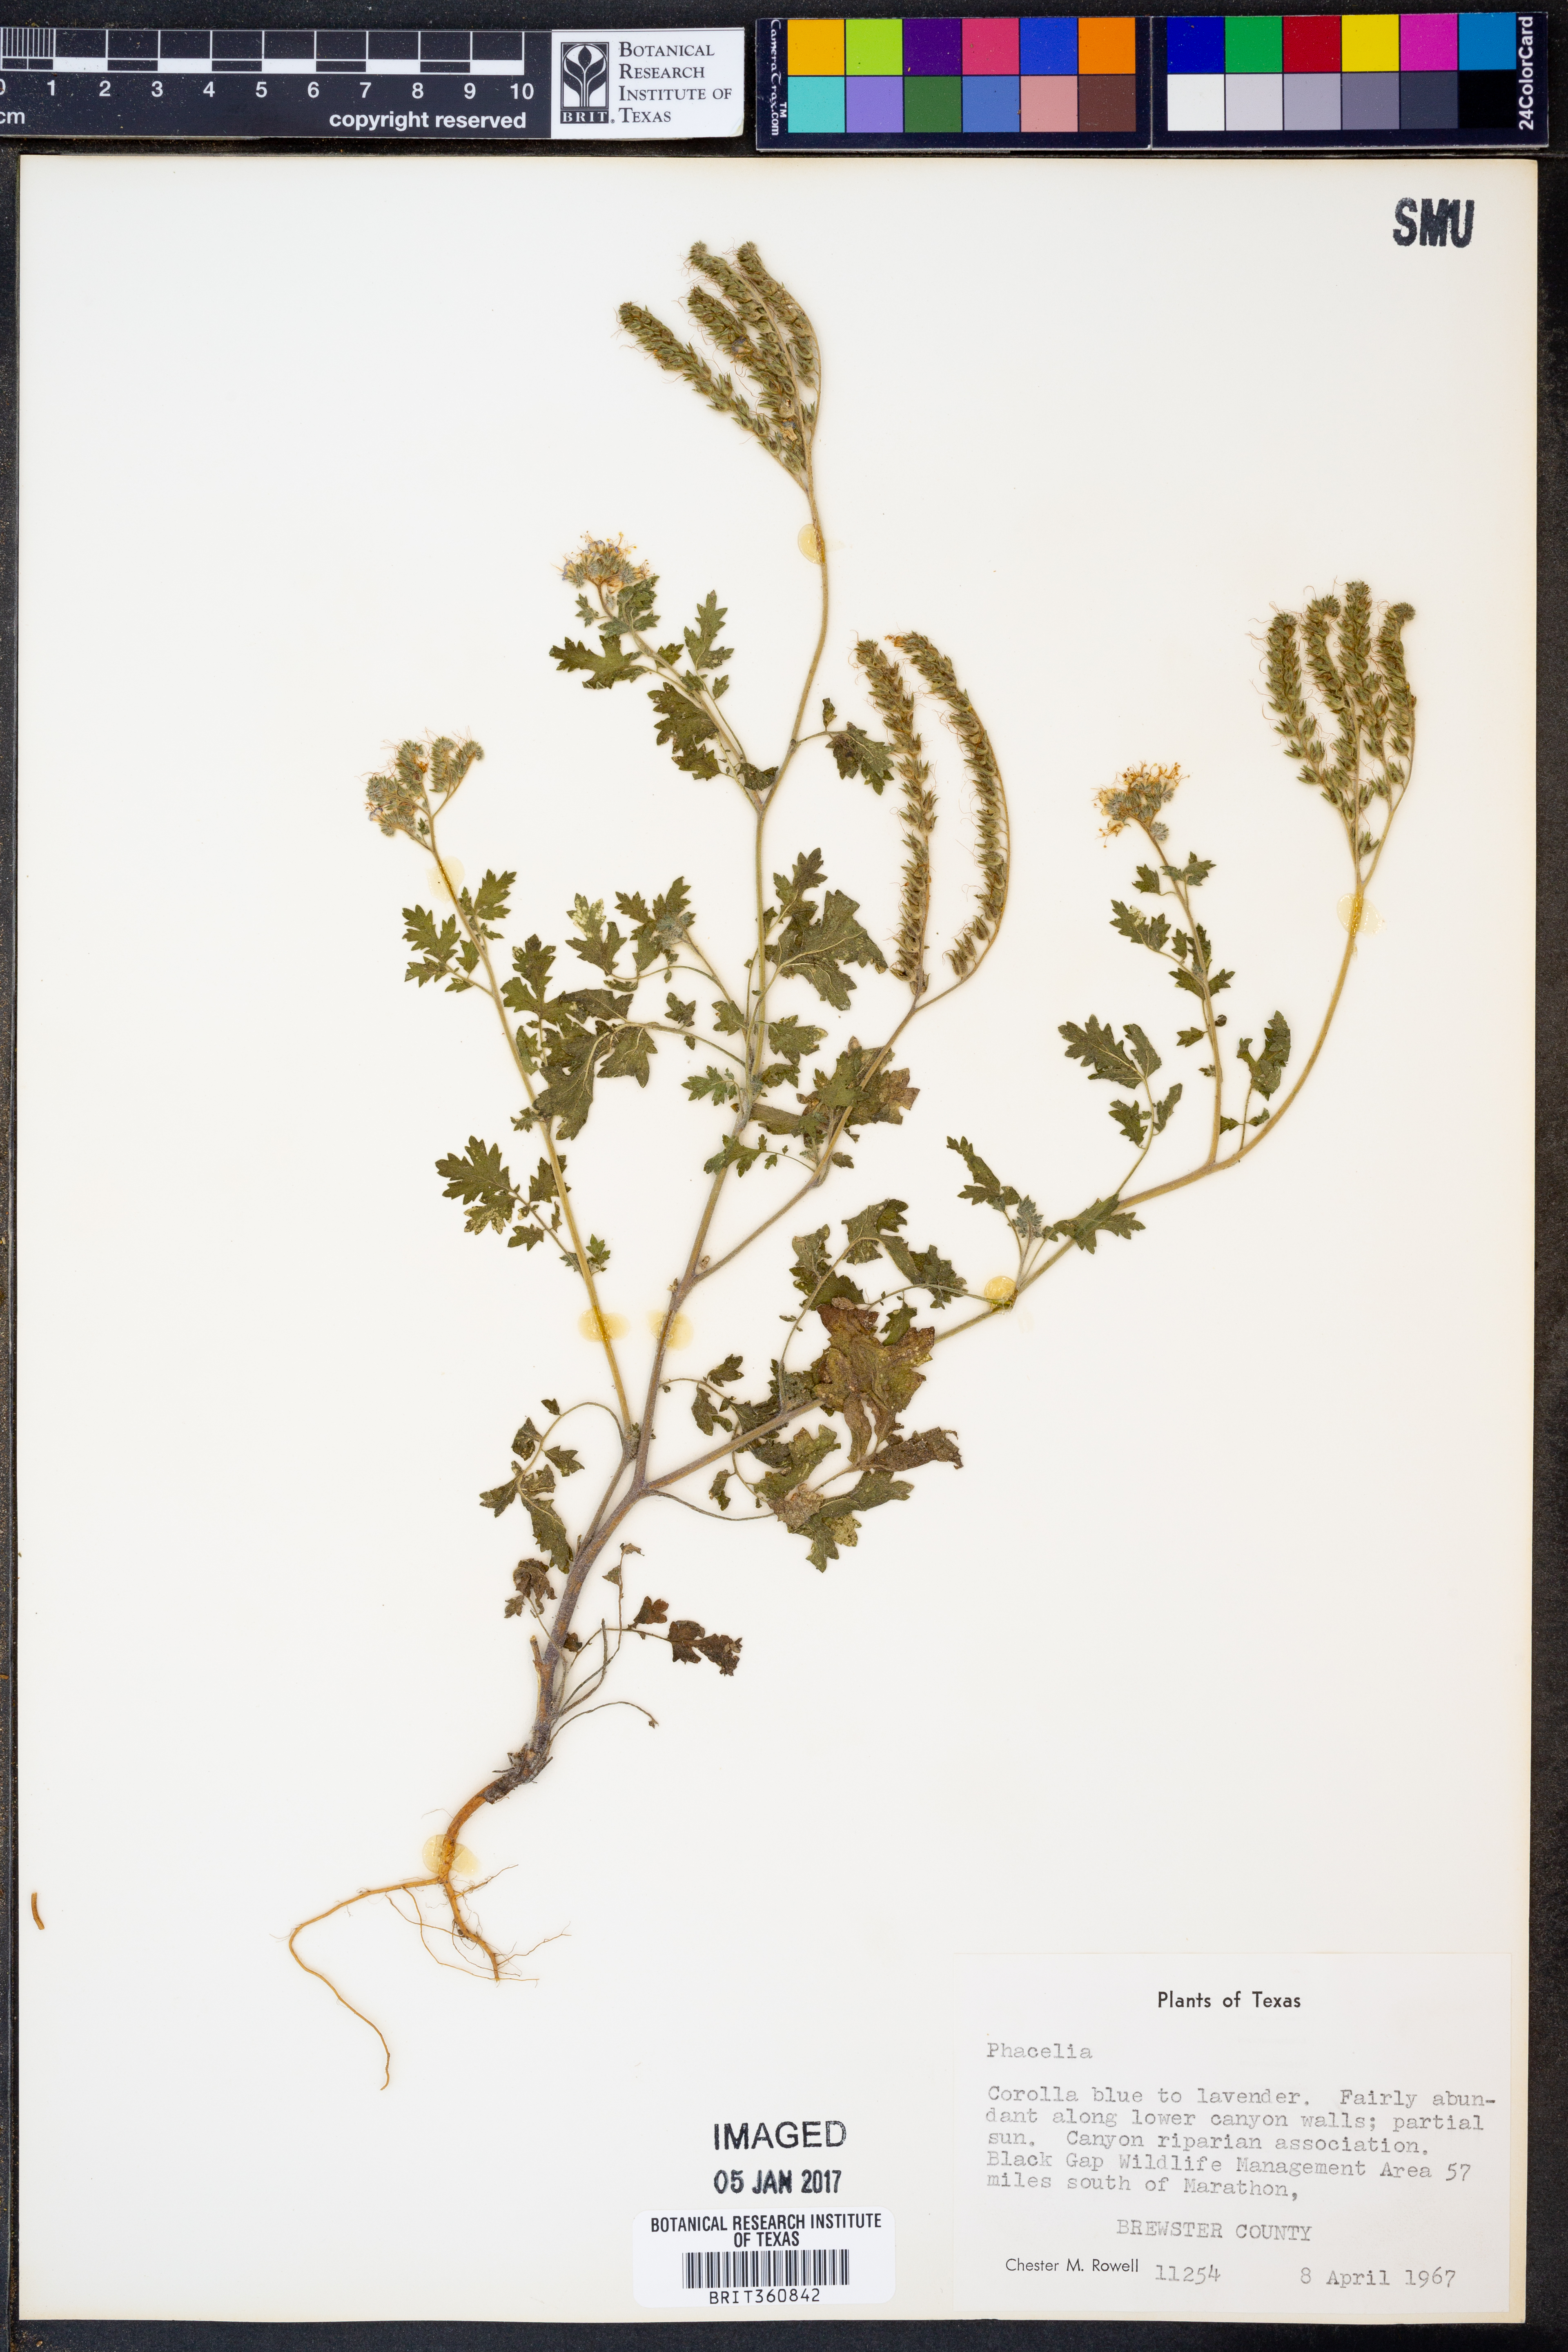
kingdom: Plantae
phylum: Tracheophyta
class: Magnoliopsida
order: Boraginales
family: Hydrophyllaceae
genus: Phacelia
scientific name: Phacelia
